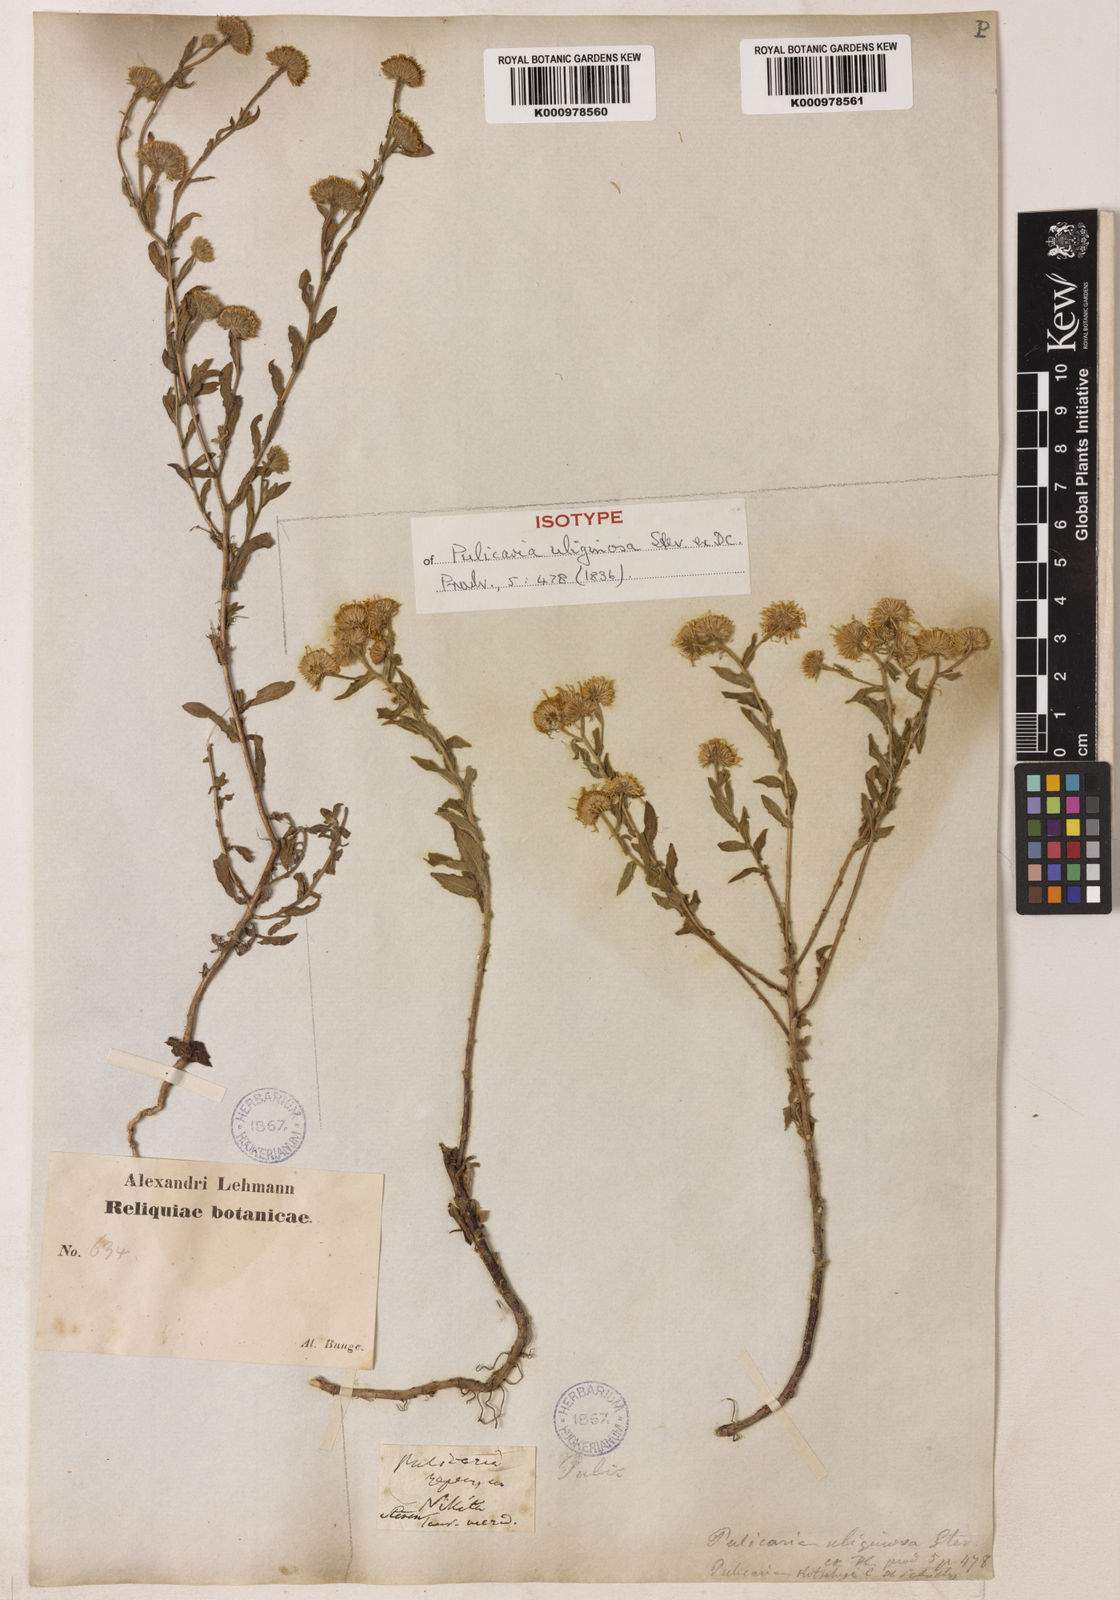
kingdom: Plantae
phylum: Tracheophyta
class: Magnoliopsida
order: Asterales
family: Asteraceae
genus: Pulicaria
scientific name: Pulicaria
